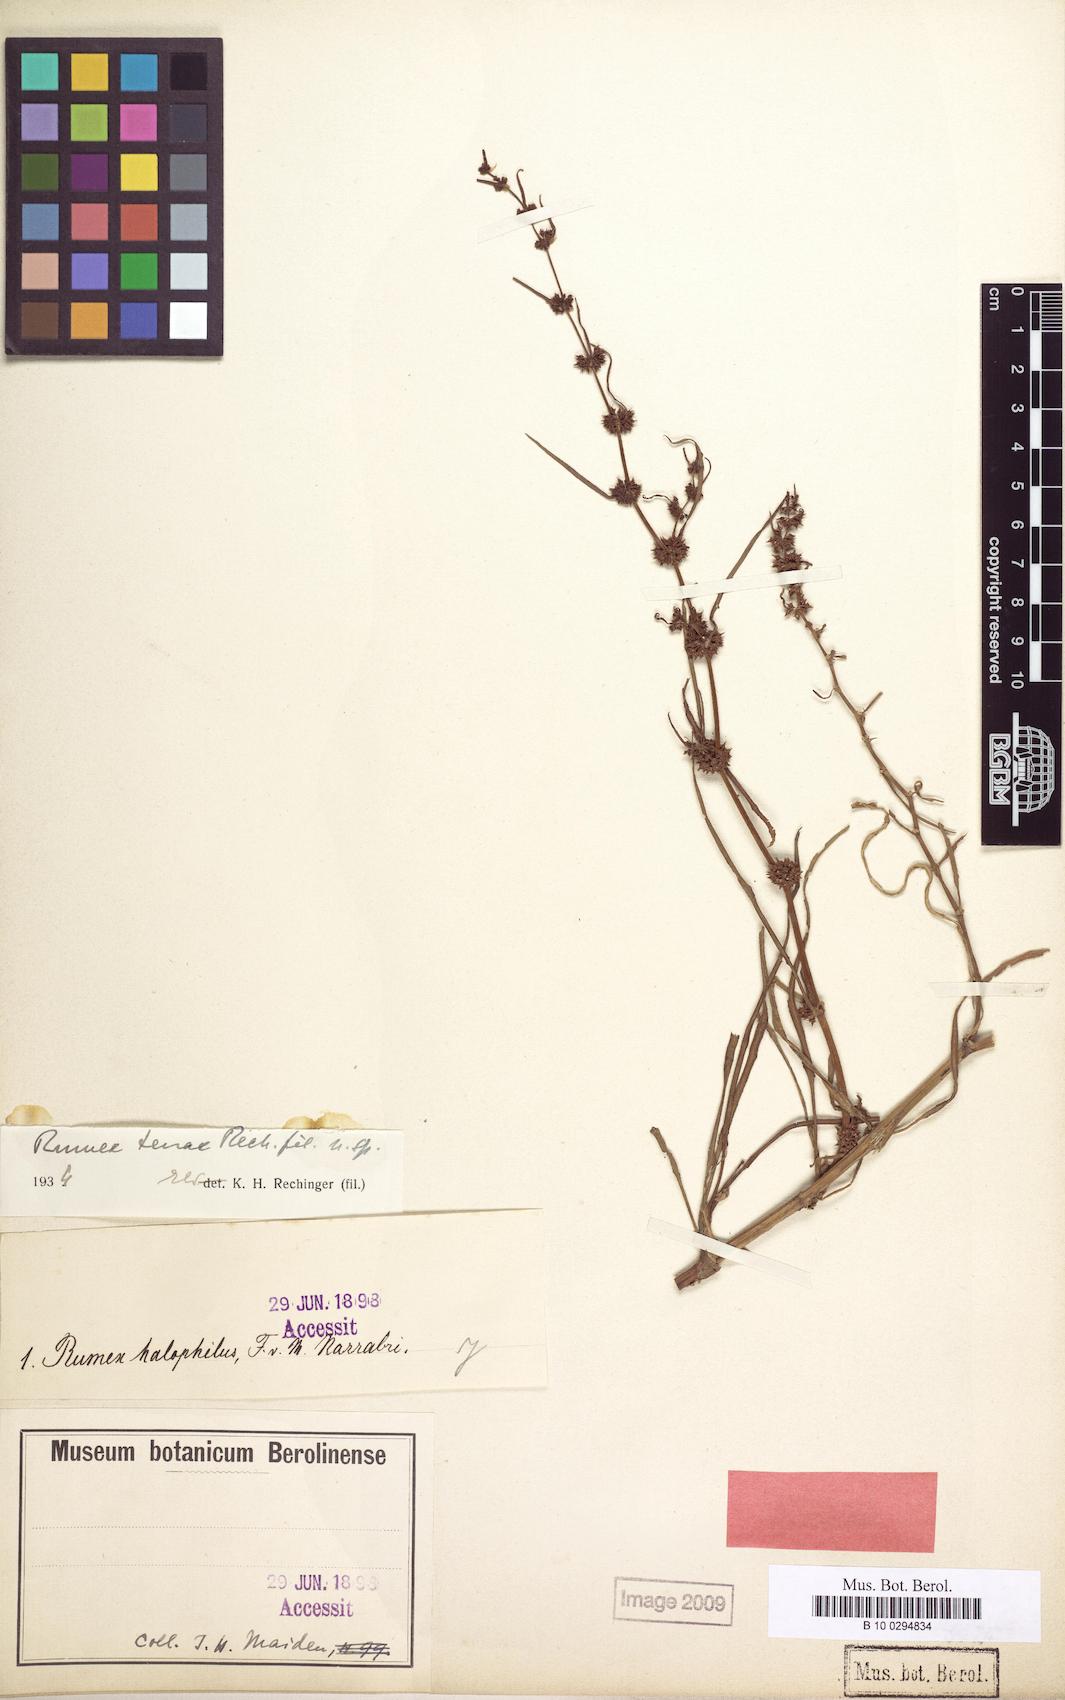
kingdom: Plantae
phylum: Tracheophyta
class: Magnoliopsida
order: Caryophyllales
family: Polygonaceae
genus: Rumex
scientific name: Rumex tenax
